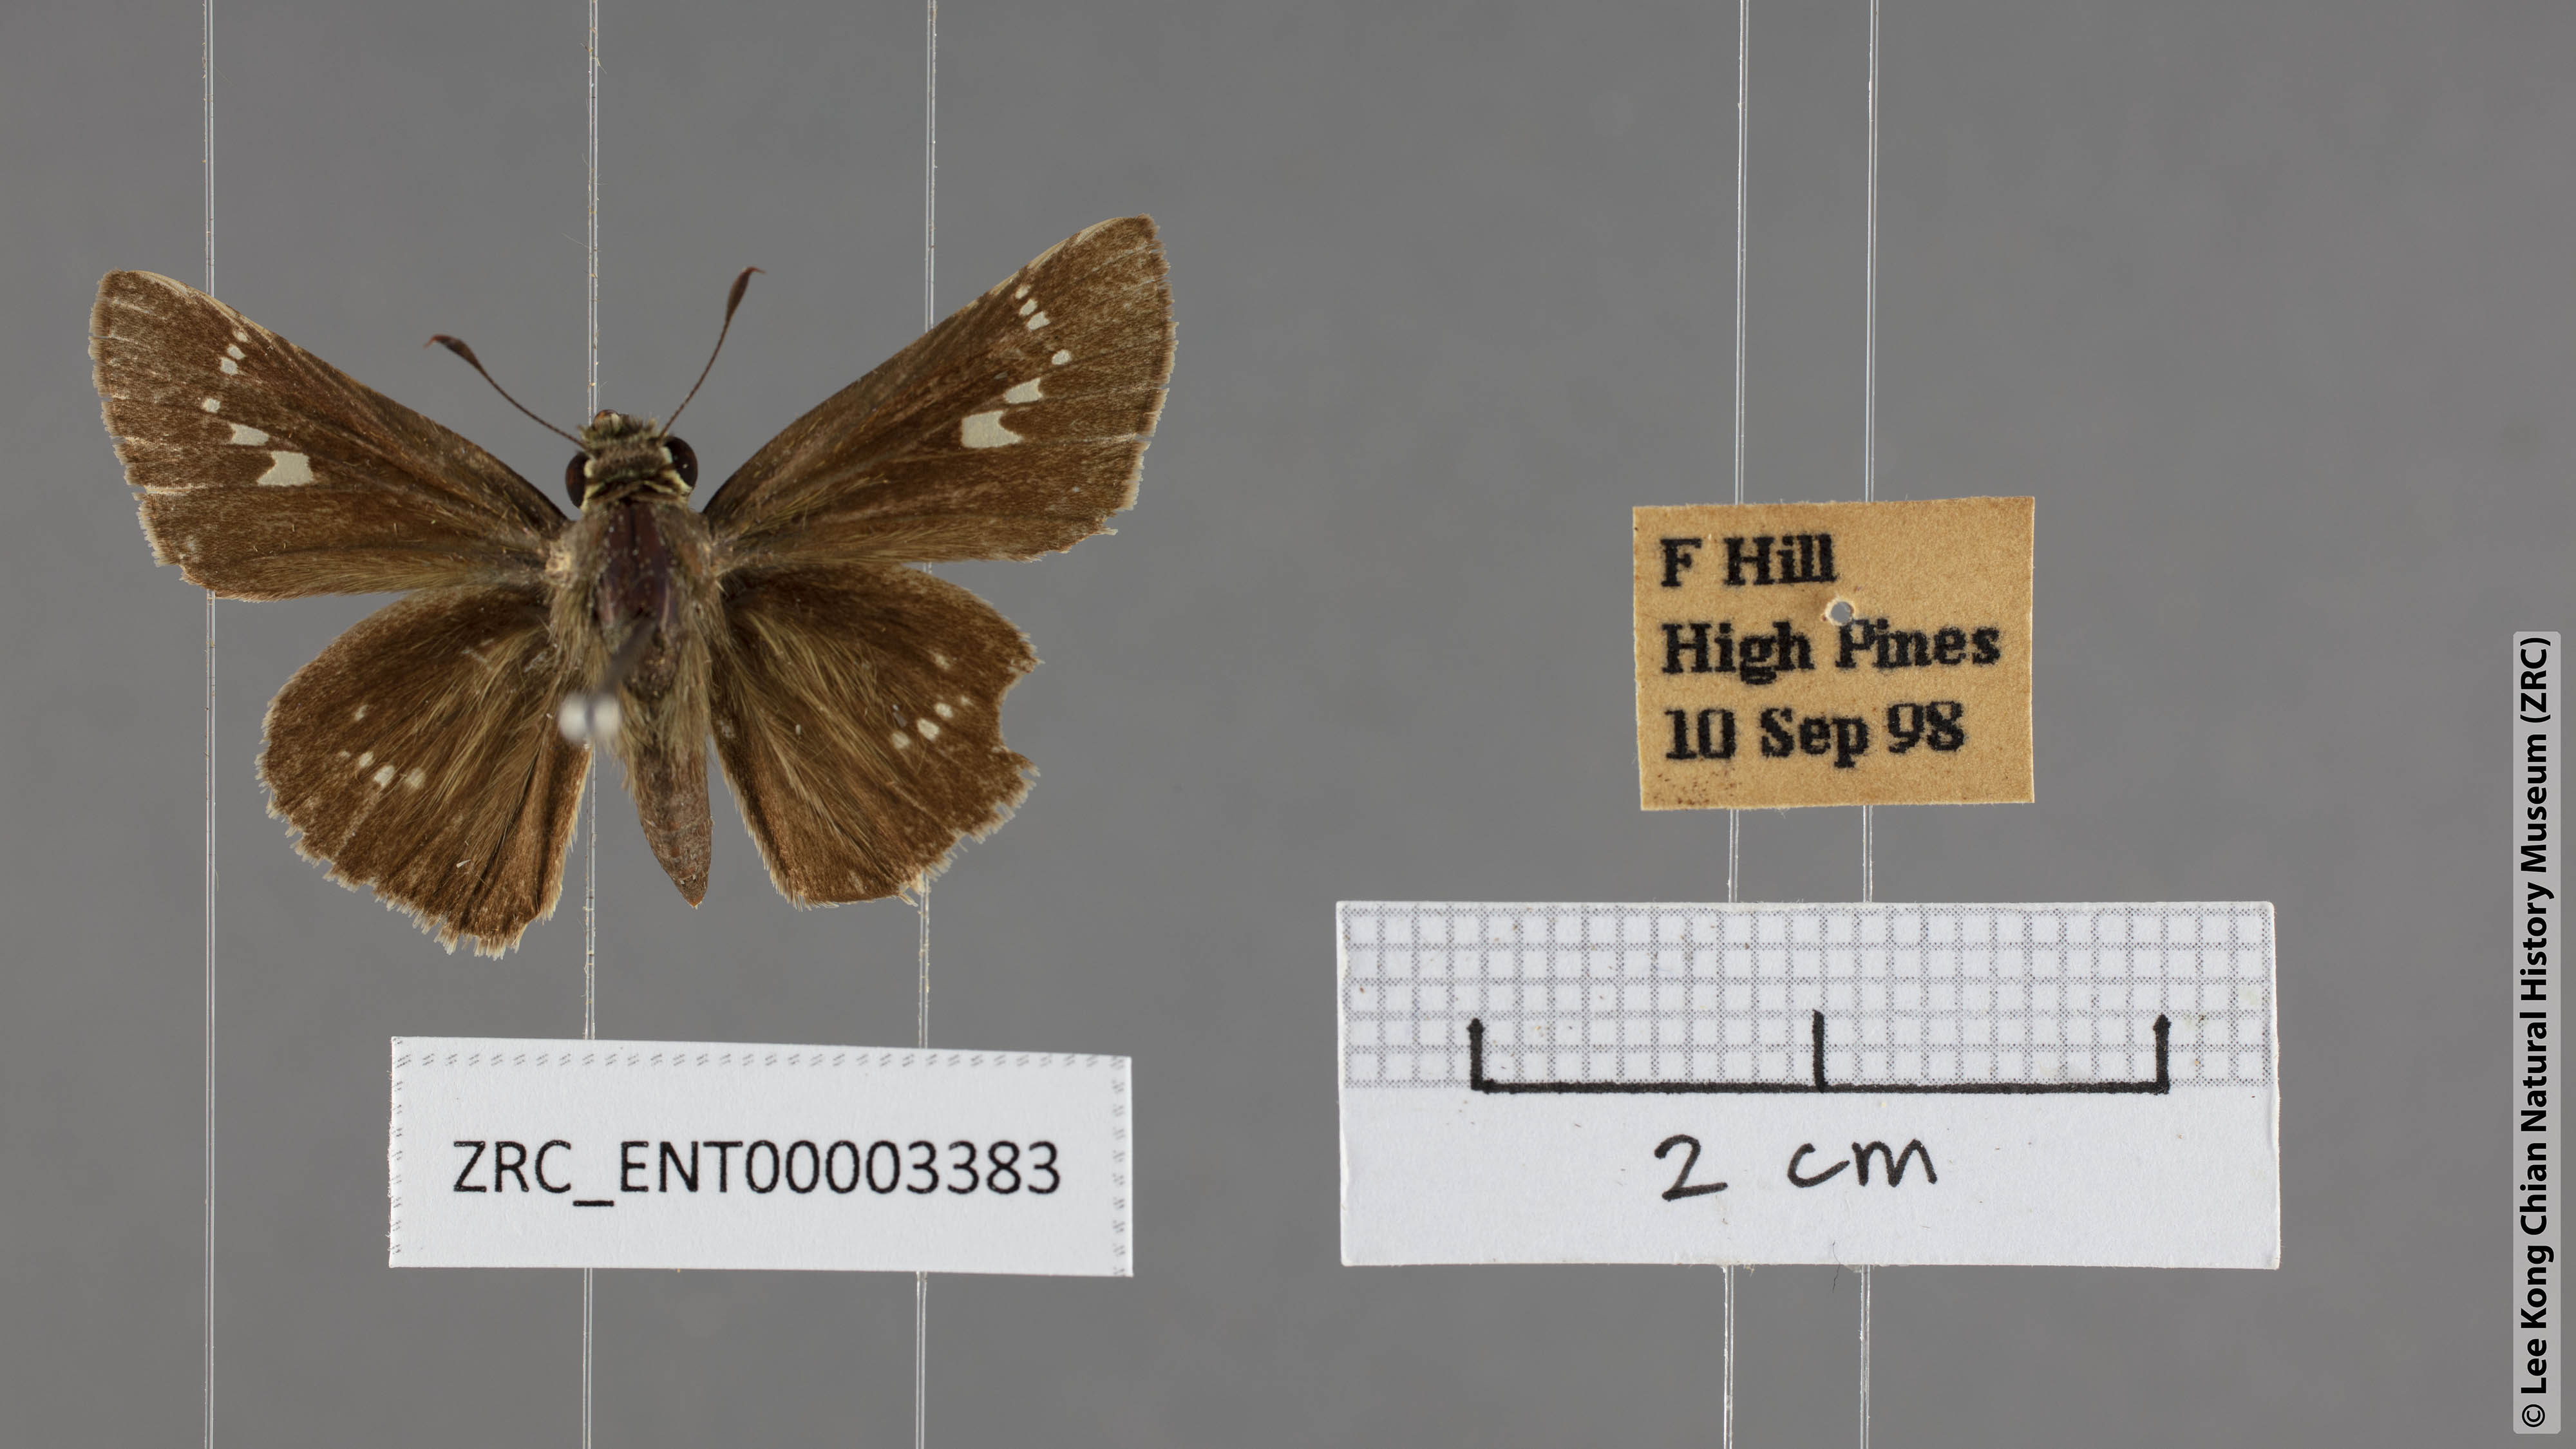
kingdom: Animalia
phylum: Arthropoda
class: Insecta
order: Lepidoptera
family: Hesperiidae
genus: Parnara
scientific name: Parnara apostata
